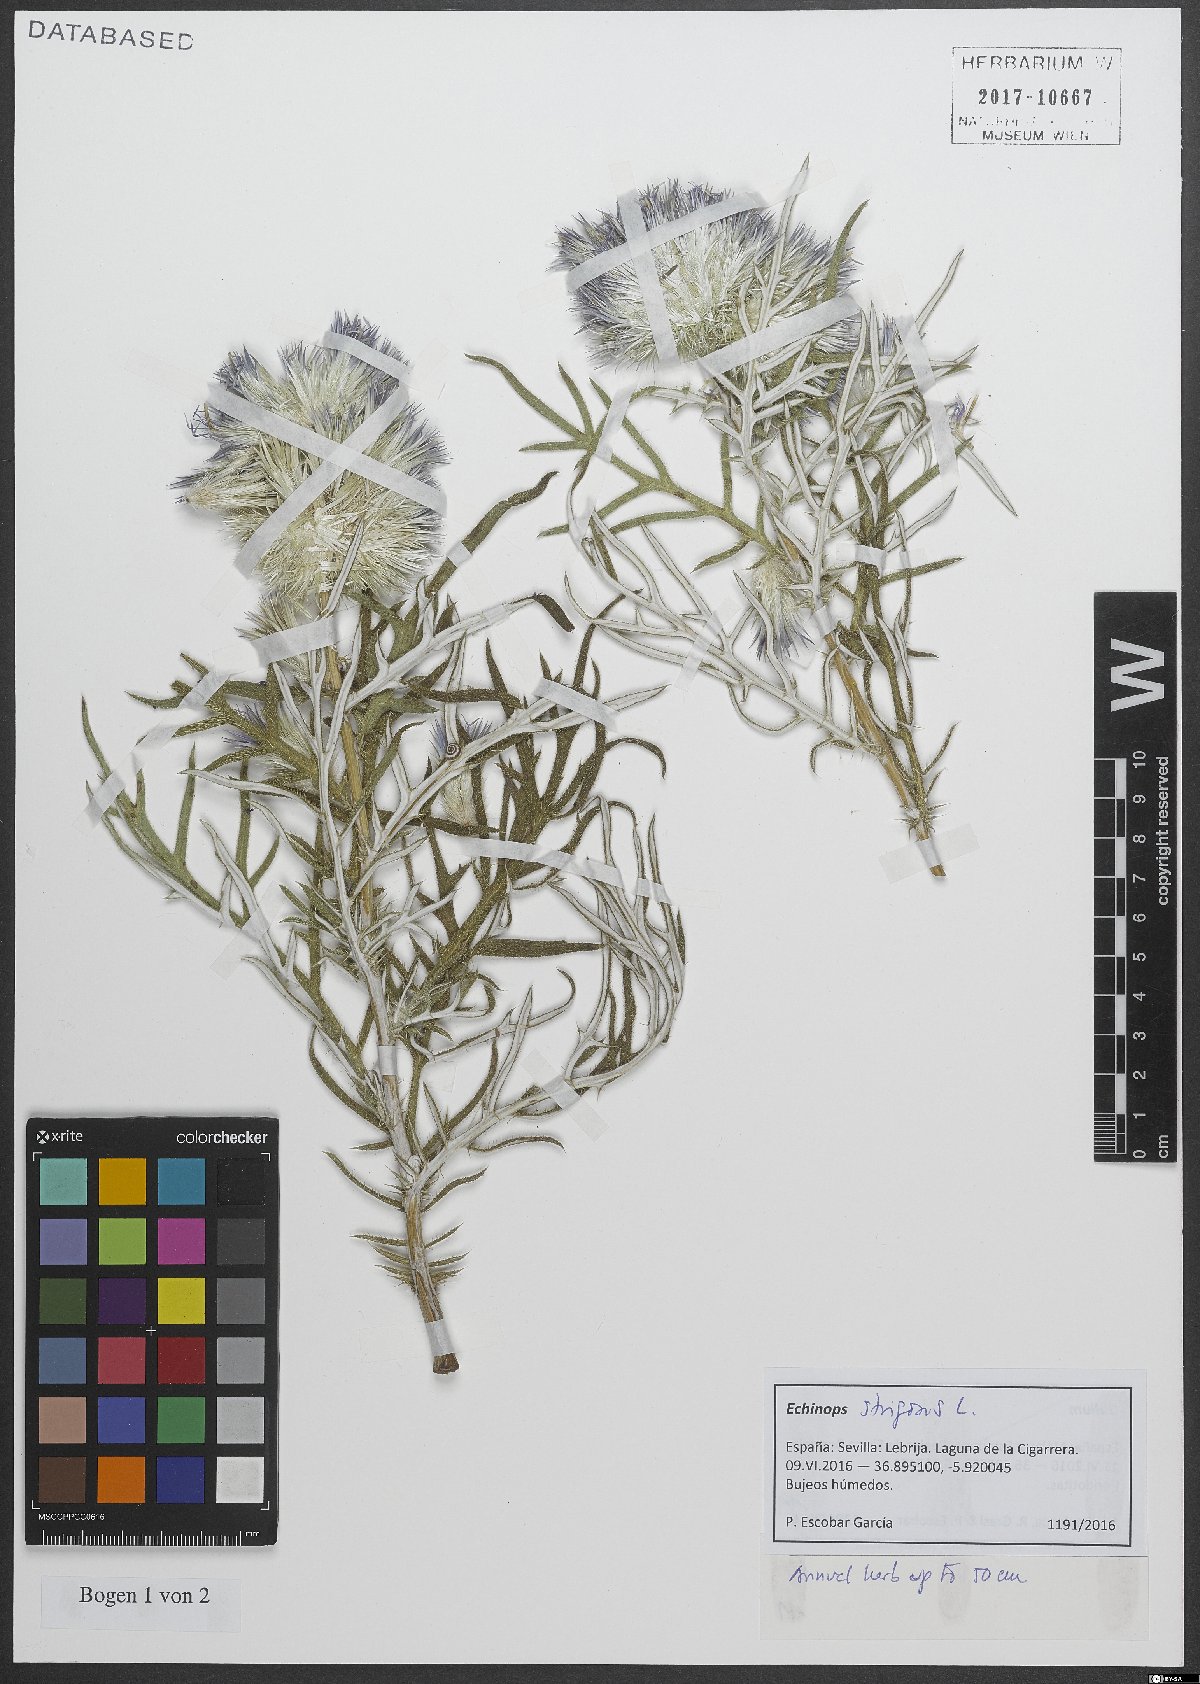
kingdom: Plantae
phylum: Tracheophyta
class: Magnoliopsida
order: Asterales
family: Asteraceae
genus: Echinops
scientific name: Echinops strigosus
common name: Rough-leaf globe thistle
